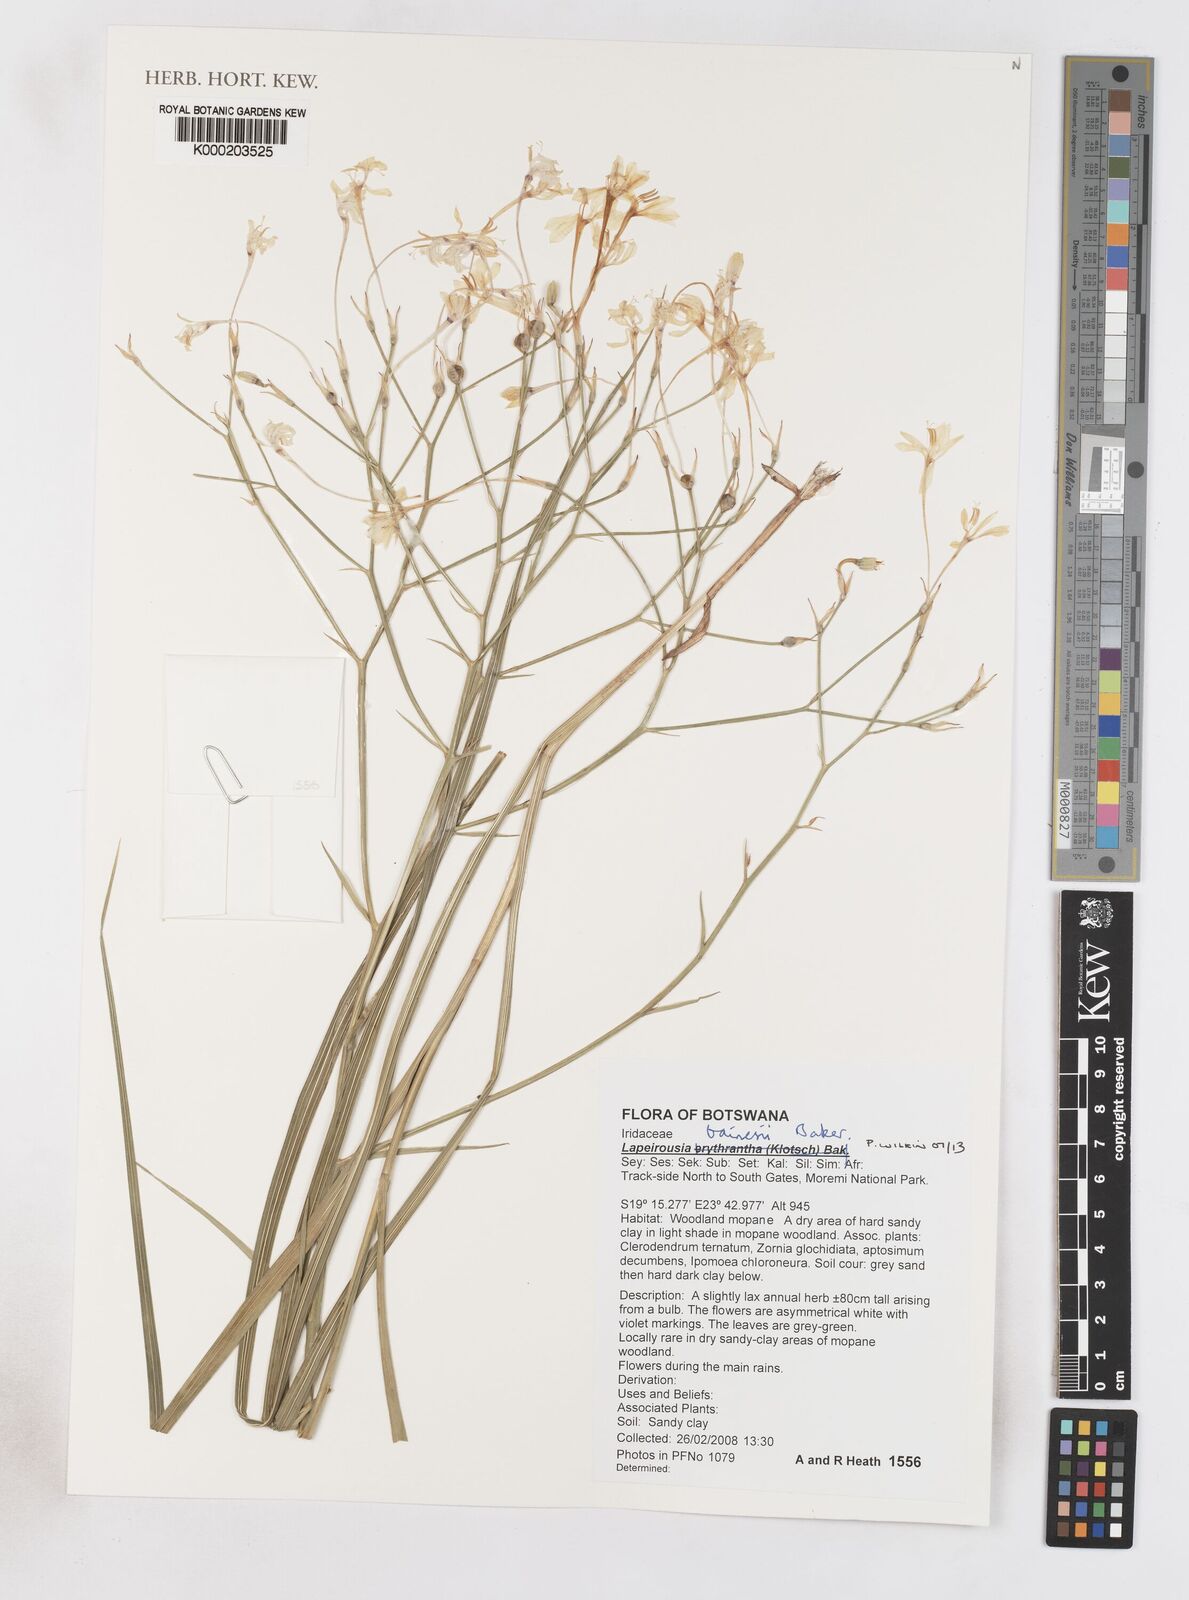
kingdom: Plantae
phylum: Tracheophyta
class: Liliopsida
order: Asparagales
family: Iridaceae
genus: Afrosolen
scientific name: Afrosolen bainesii
